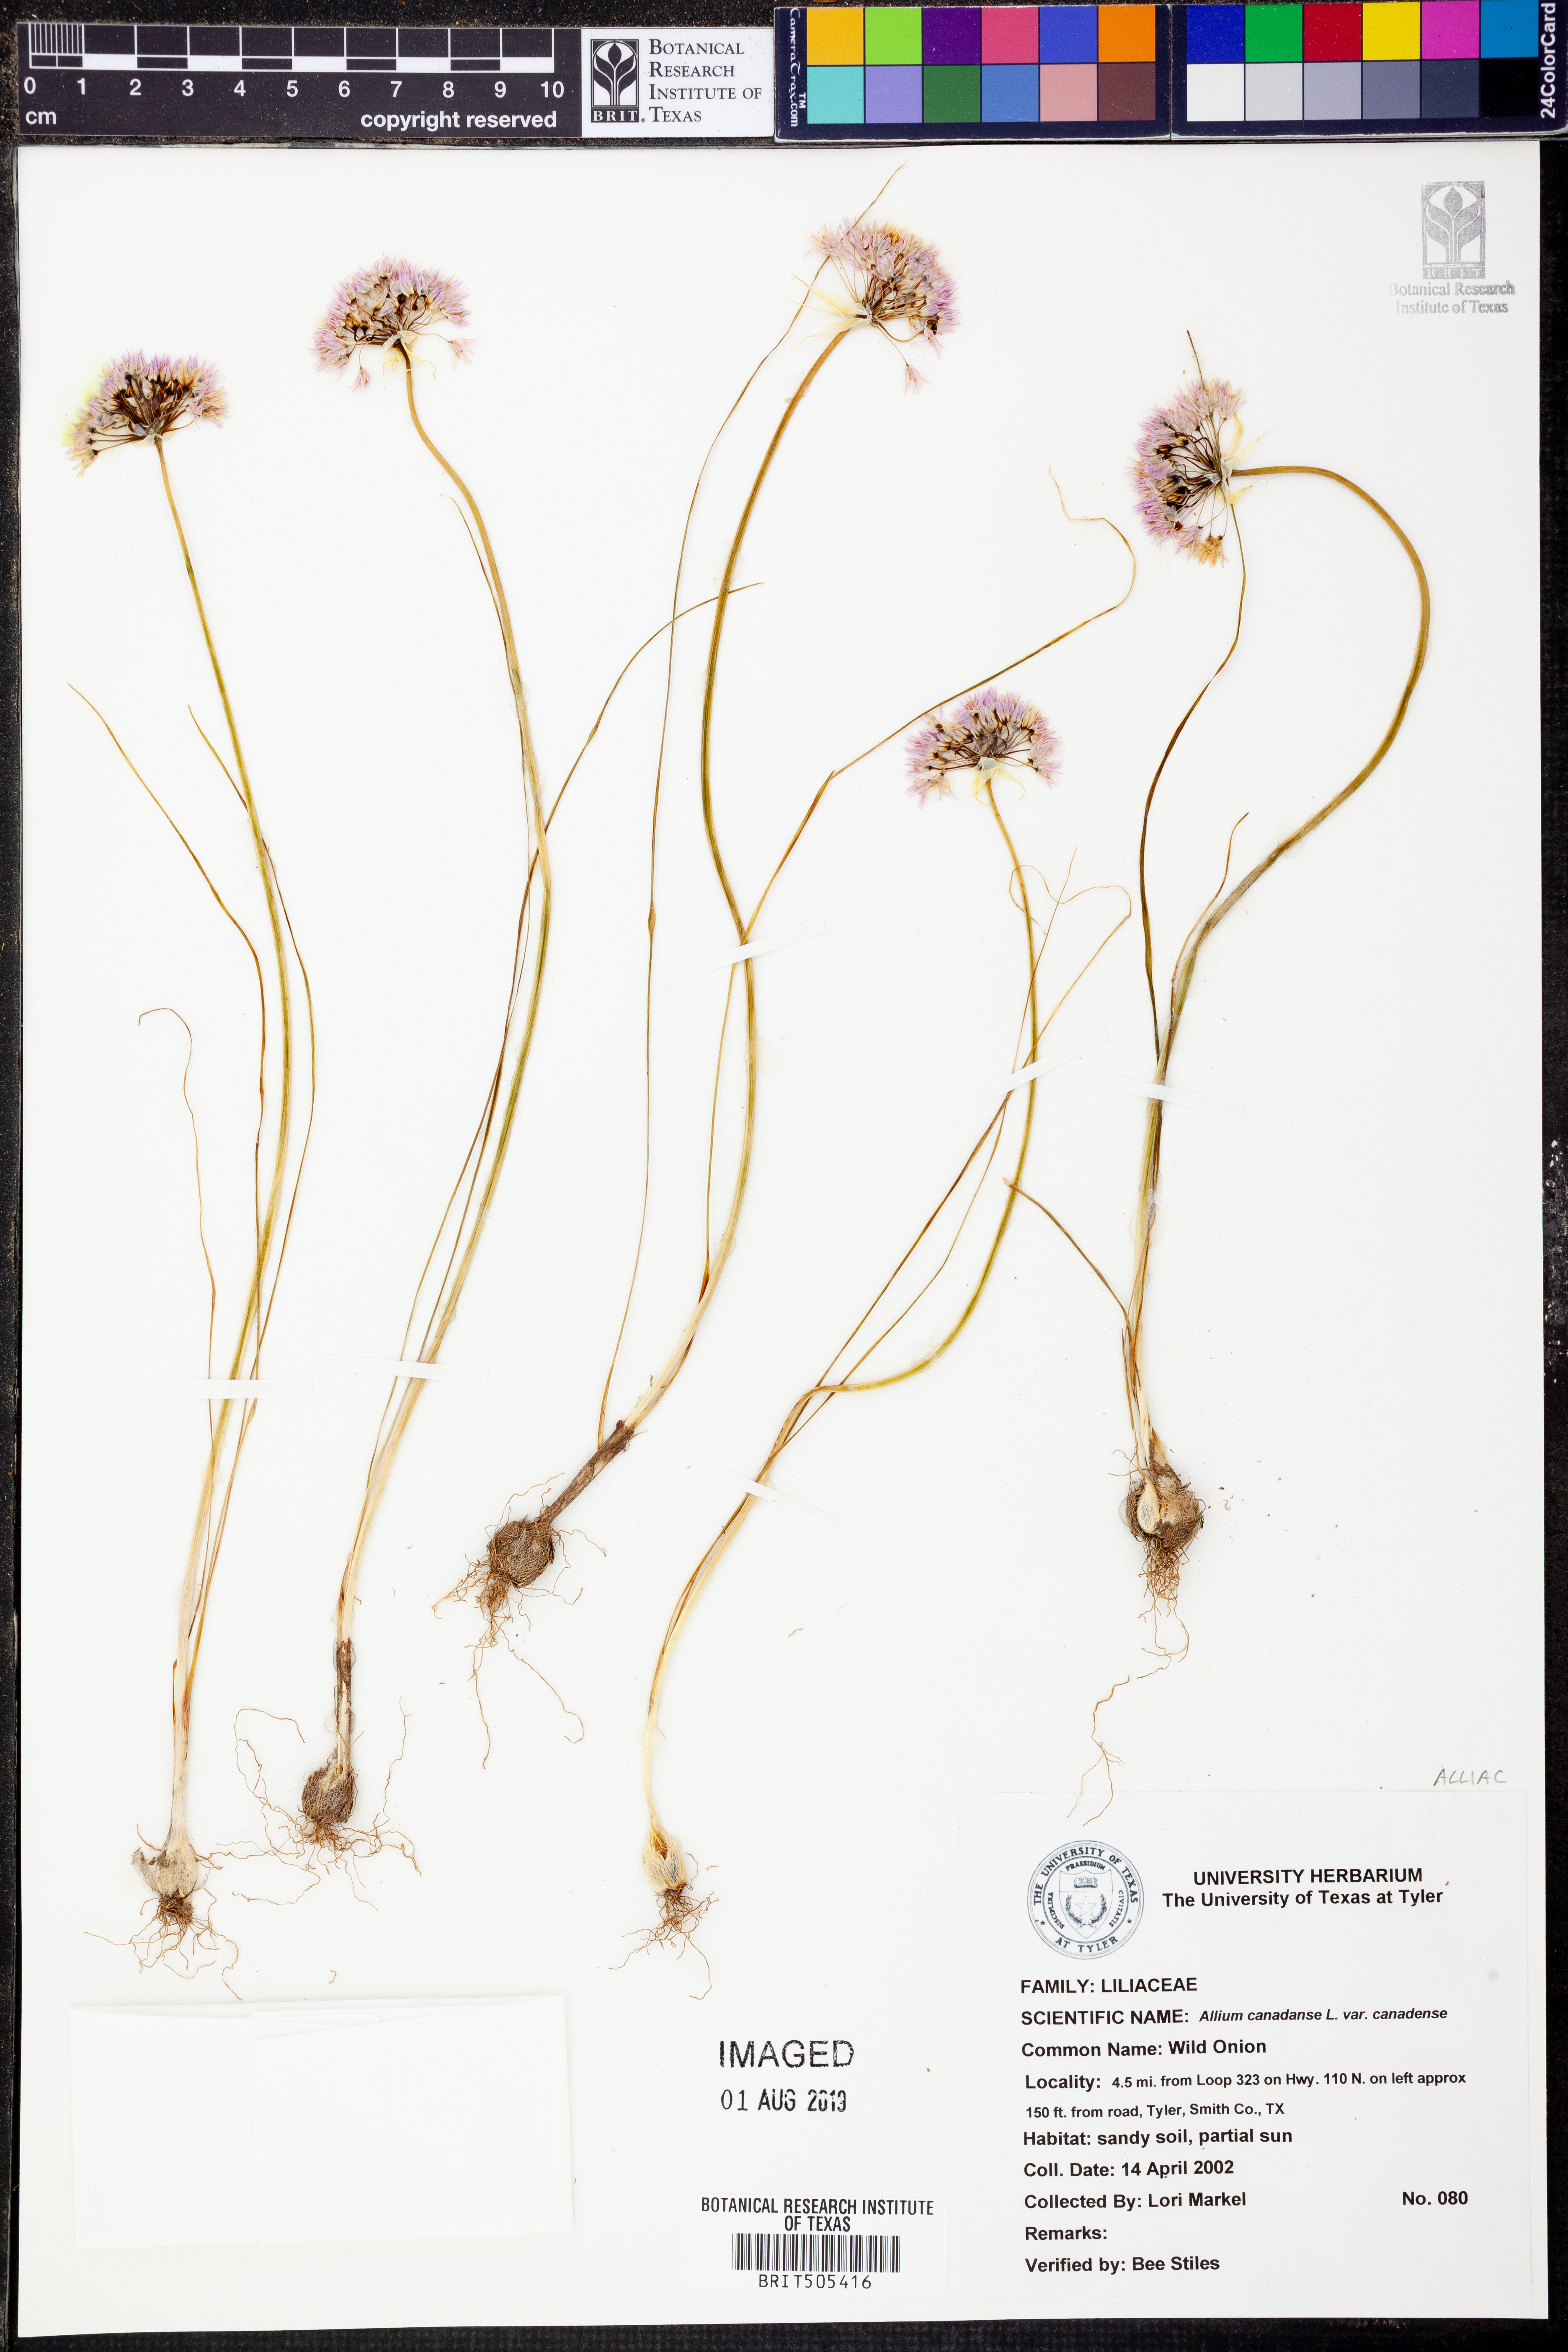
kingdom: Plantae
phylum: Tracheophyta
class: Liliopsida
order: Asparagales
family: Amaryllidaceae
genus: Allium
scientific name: Allium canadense
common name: Meadow garlic
